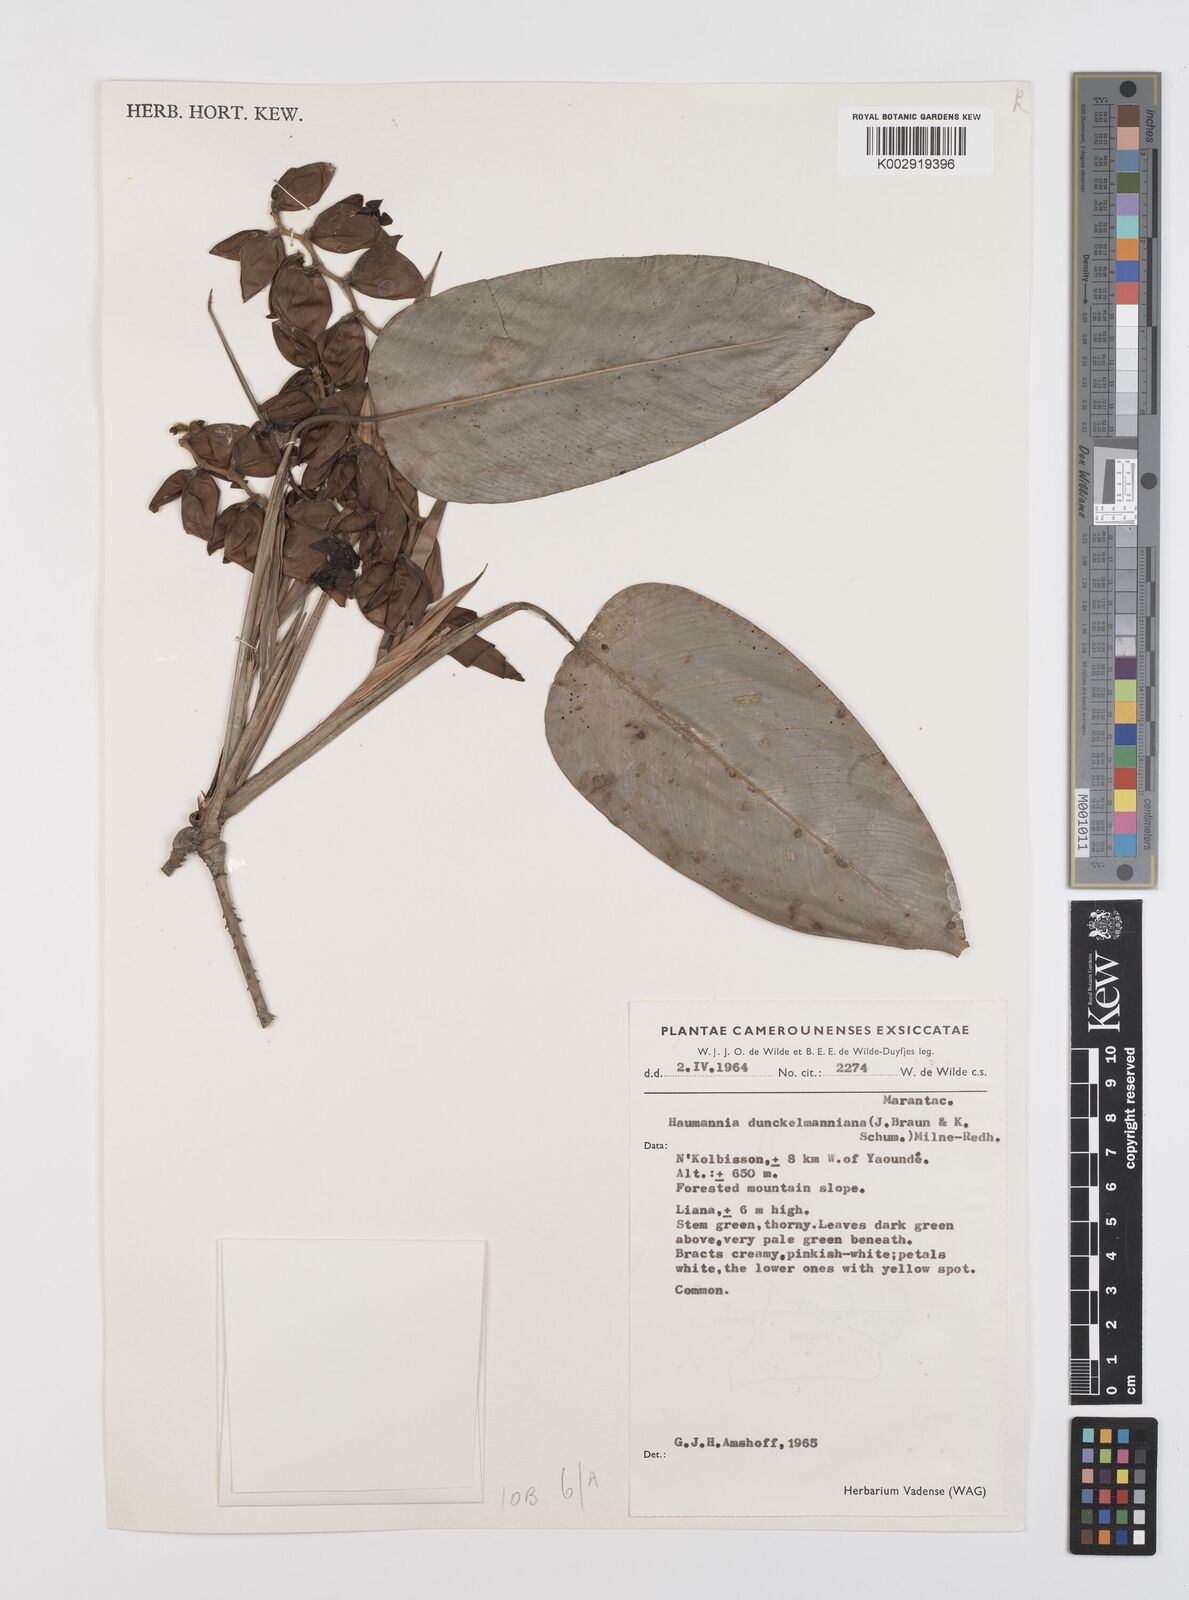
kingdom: Plantae
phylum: Tracheophyta
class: Liliopsida
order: Zingiberales
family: Marantaceae
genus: Haumania
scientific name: Haumania danckelmaniana
